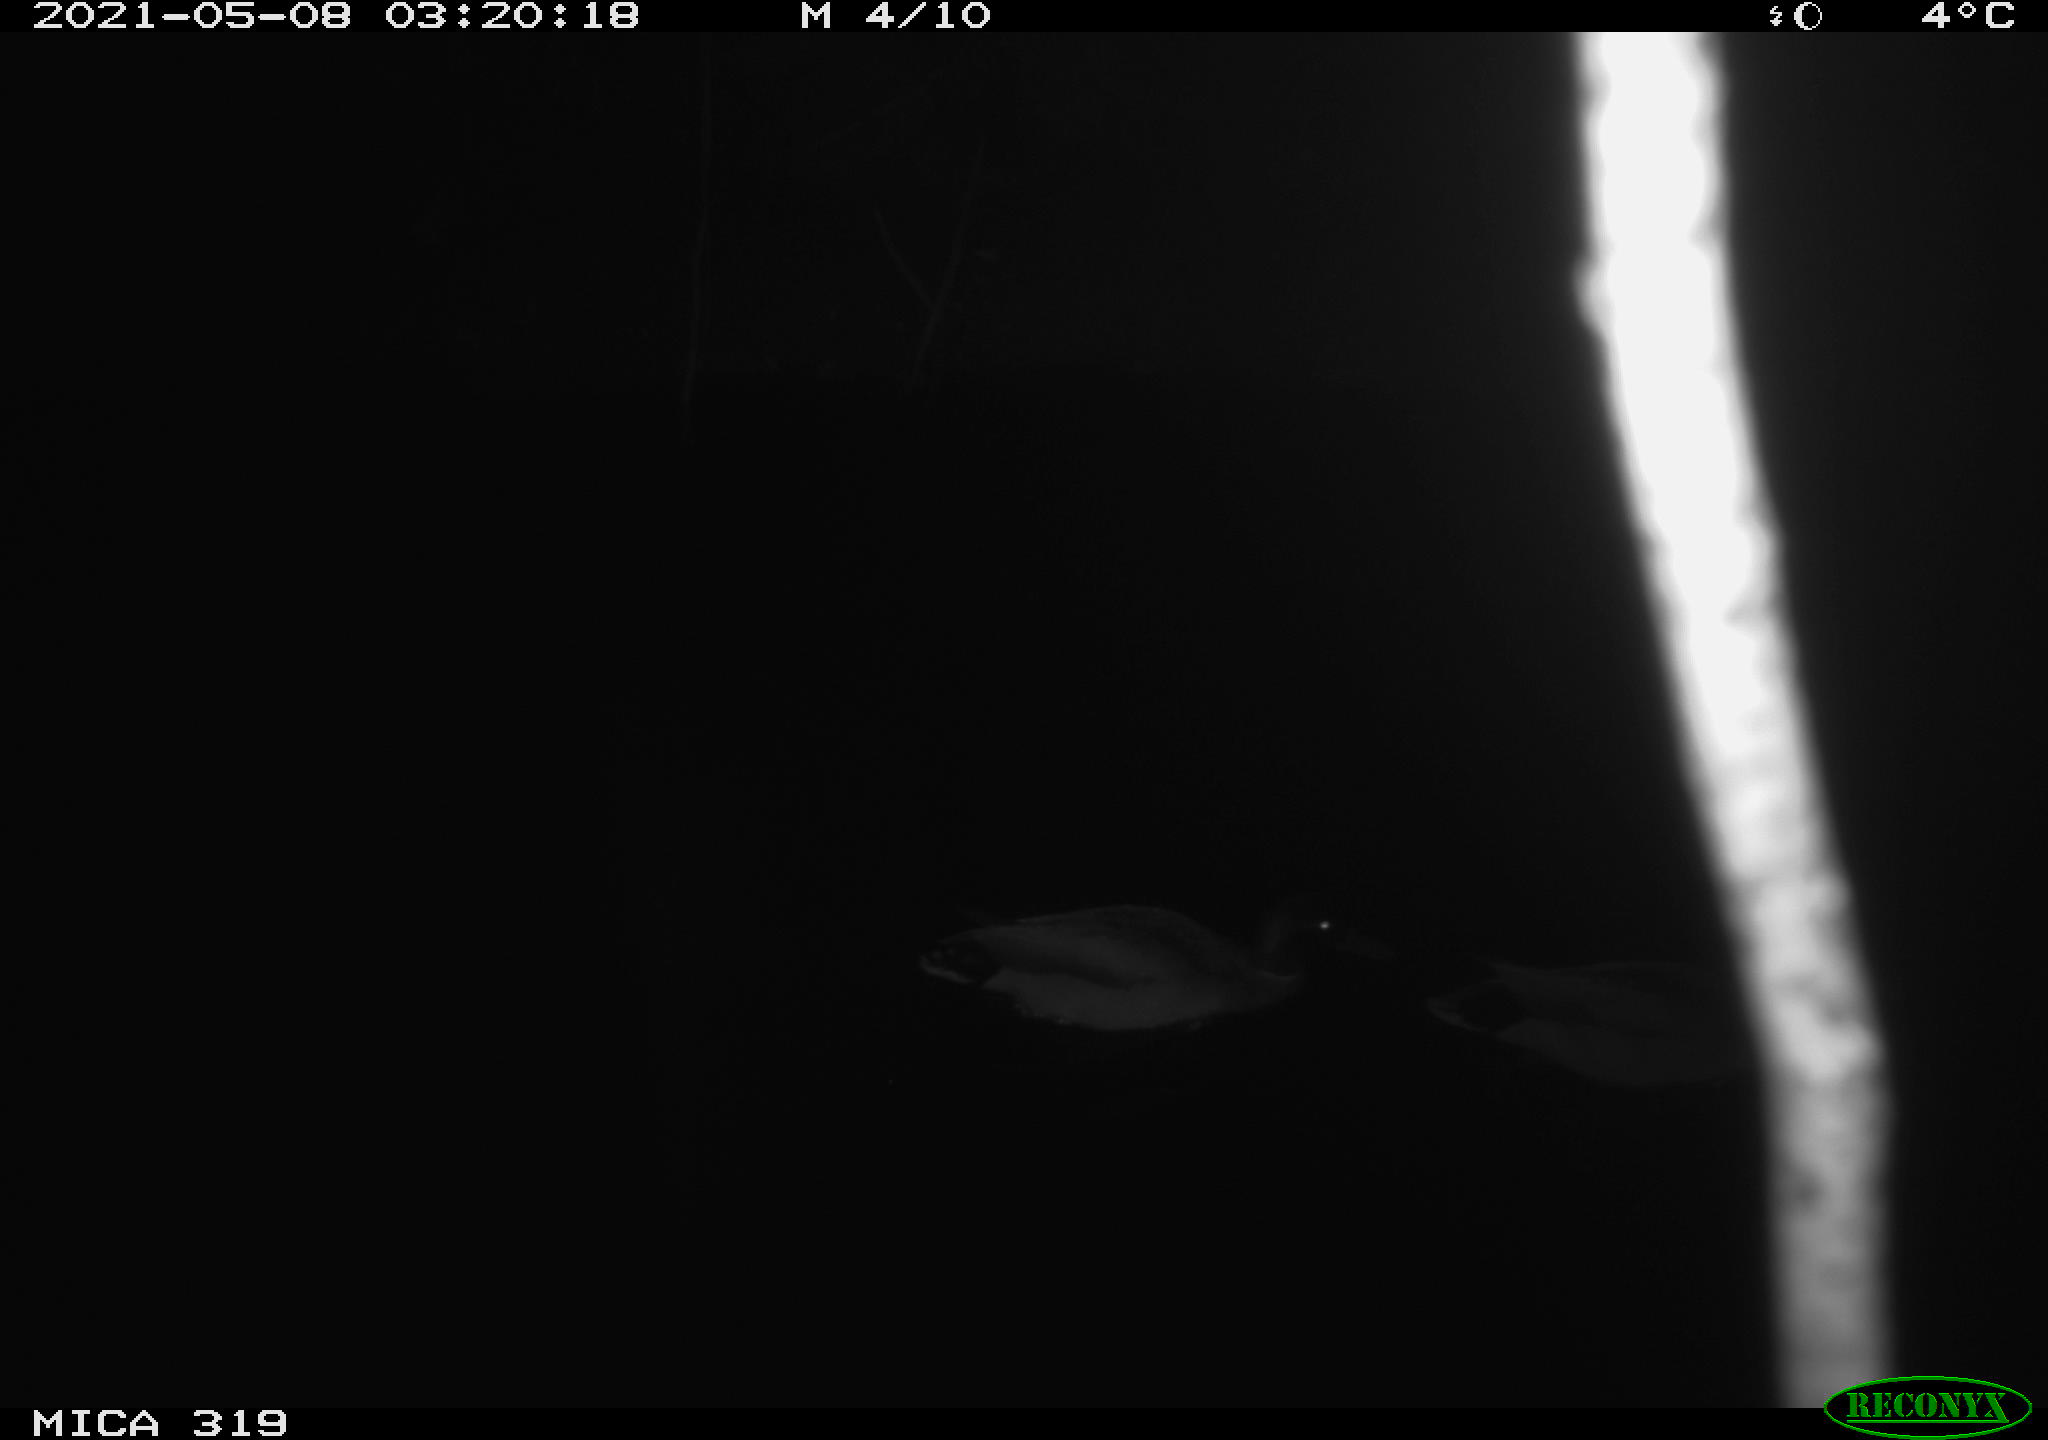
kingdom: Animalia
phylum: Chordata
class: Aves
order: Anseriformes
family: Anatidae
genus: Anas
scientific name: Anas platyrhynchos
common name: Mallard
